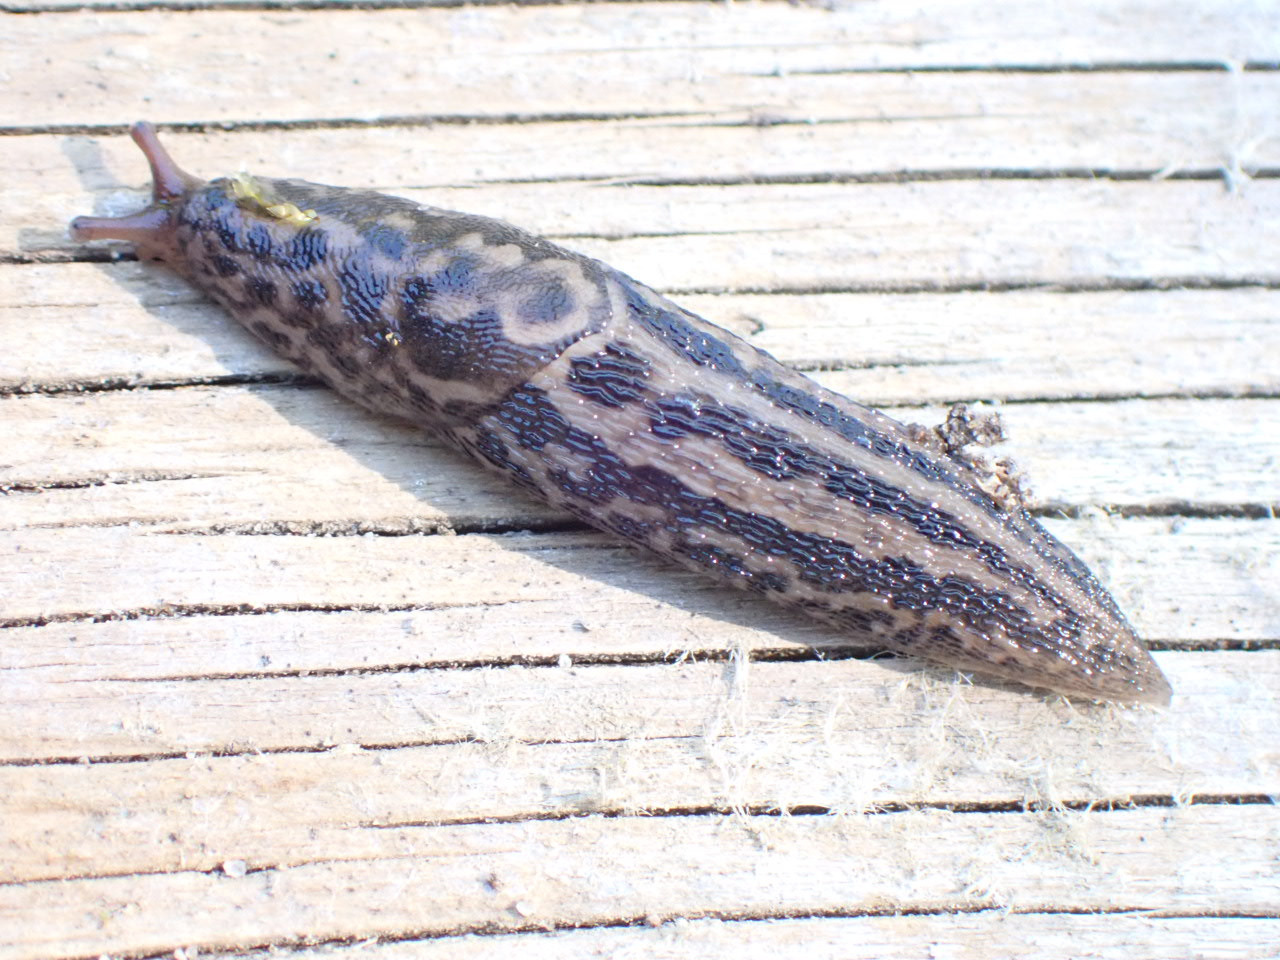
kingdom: Animalia
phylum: Mollusca
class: Gastropoda
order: Stylommatophora
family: Limacidae
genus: Limax
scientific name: Limax maximus
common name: Pantersnegl
